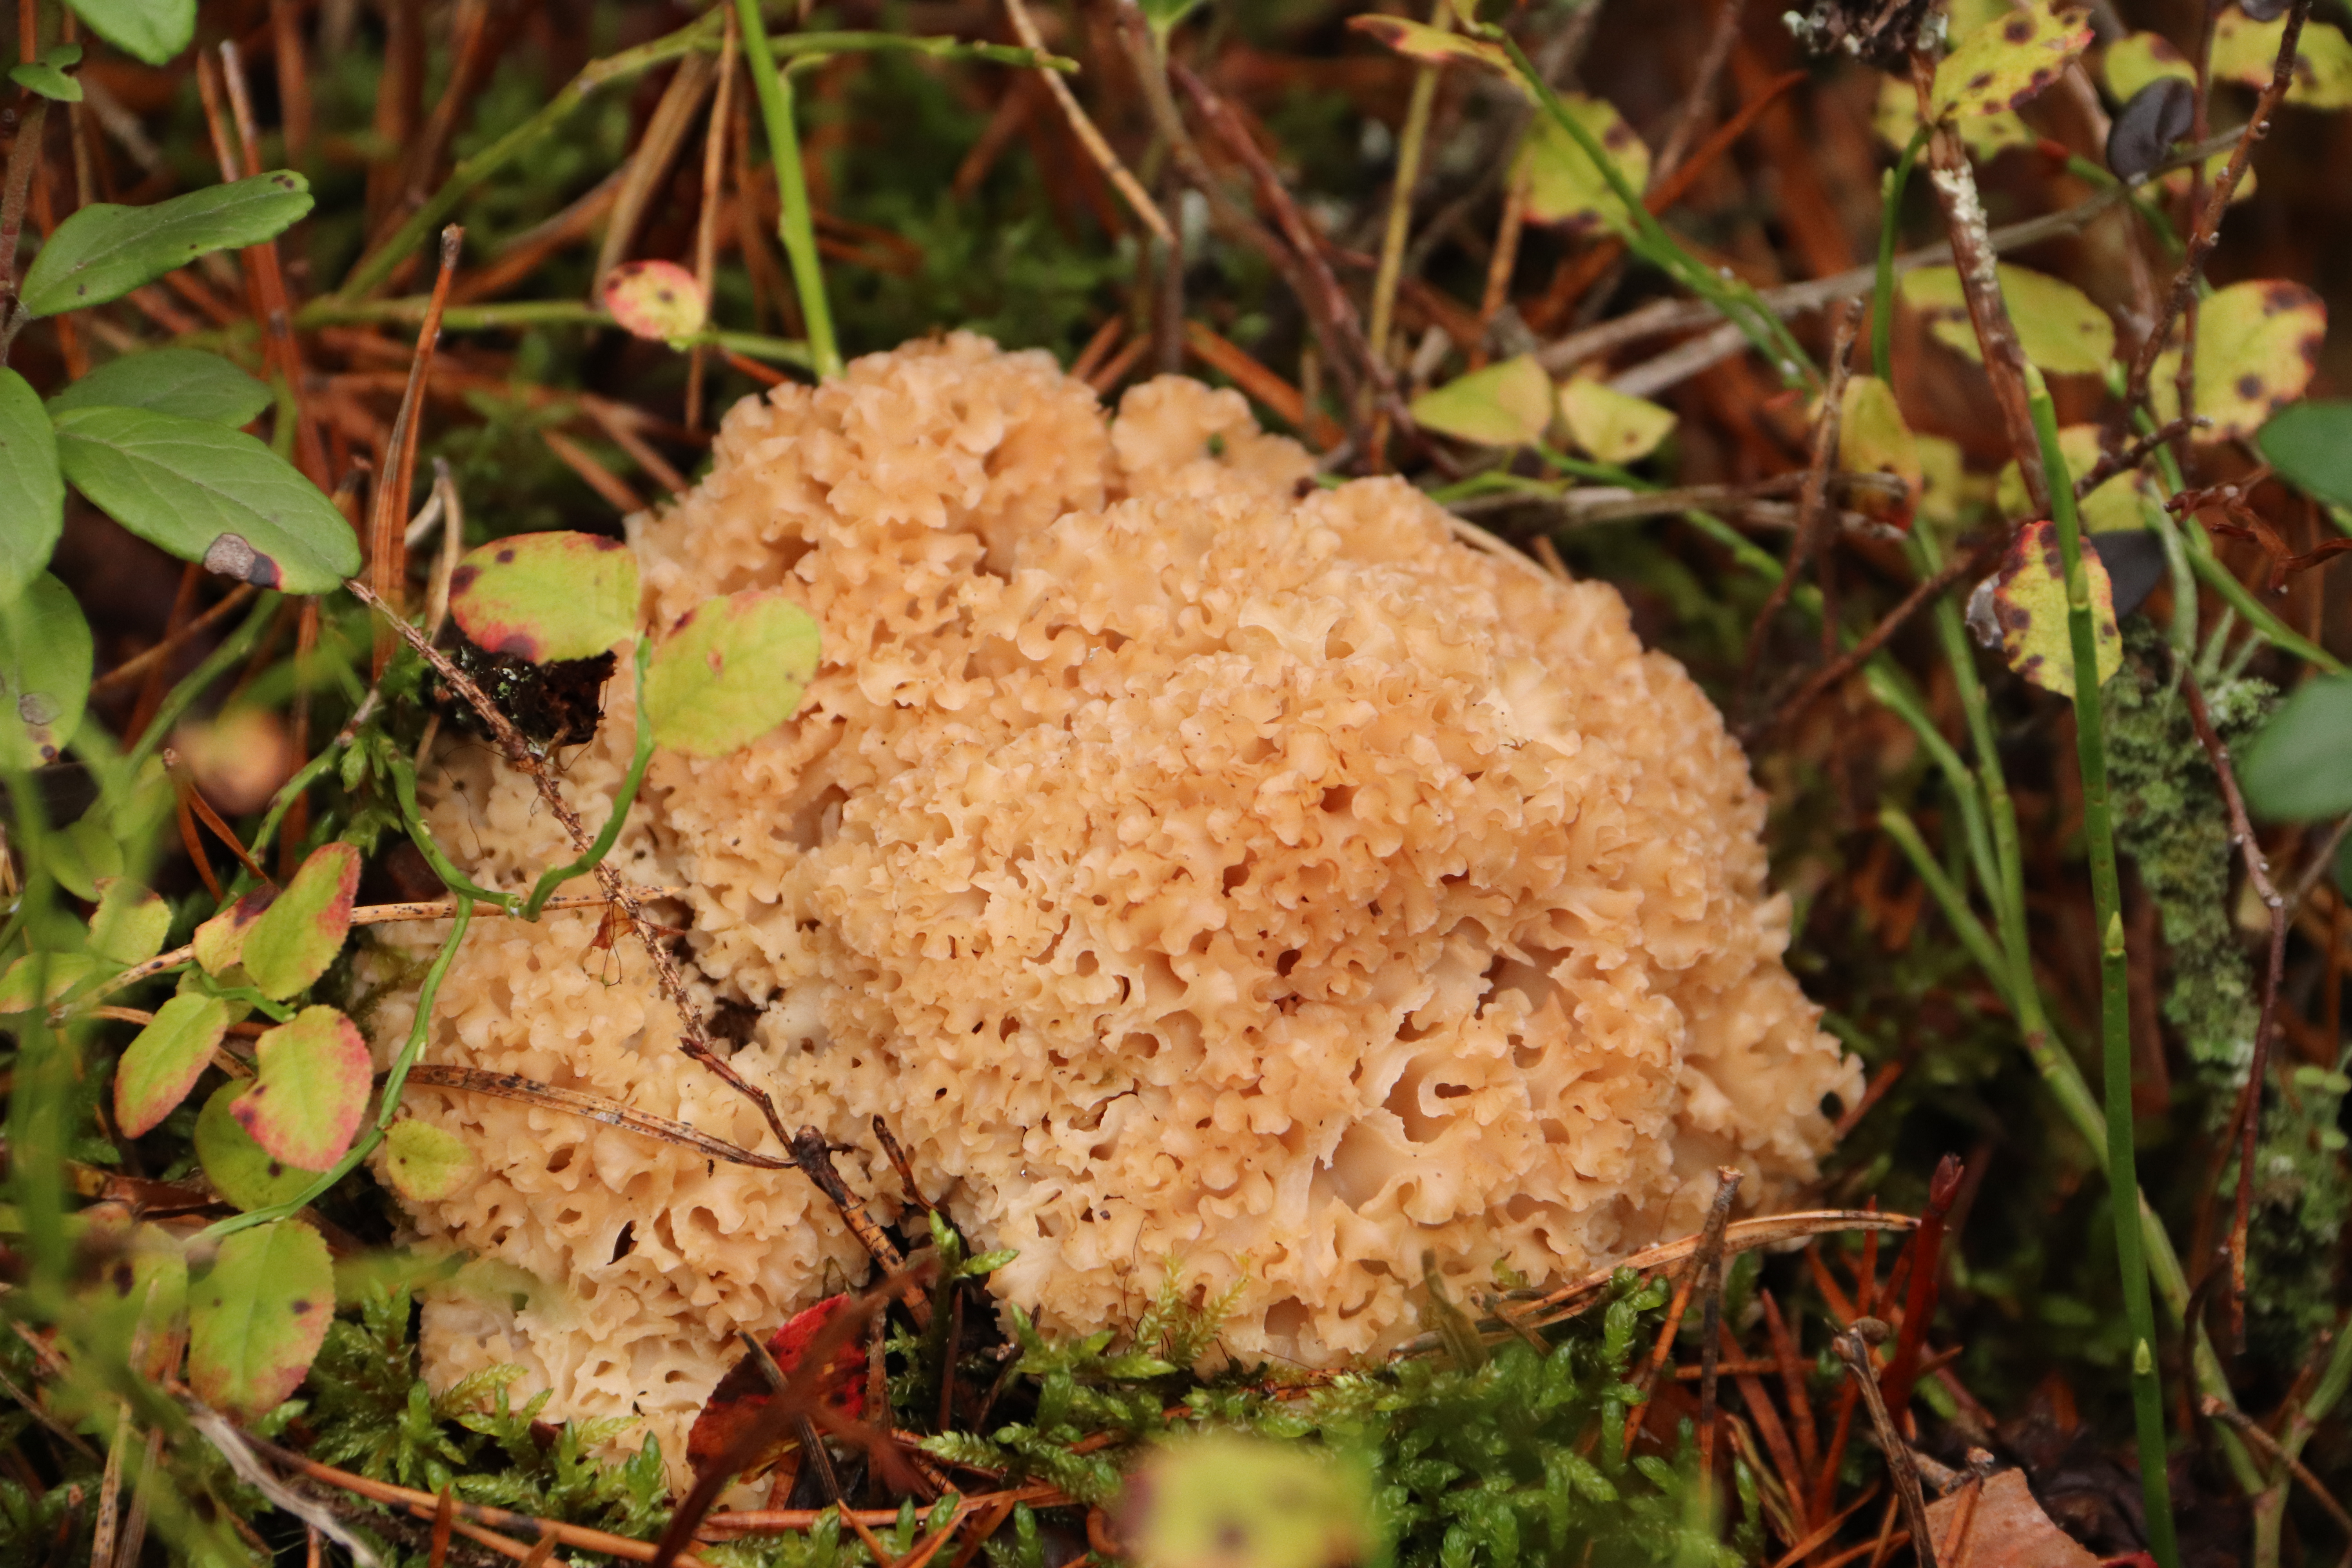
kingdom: Fungi
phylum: Basidiomycota
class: Agaricomycetes
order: Polyporales
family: Sparassidaceae
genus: Sparassis
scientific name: Sparassis crispa
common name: Brain fungus
